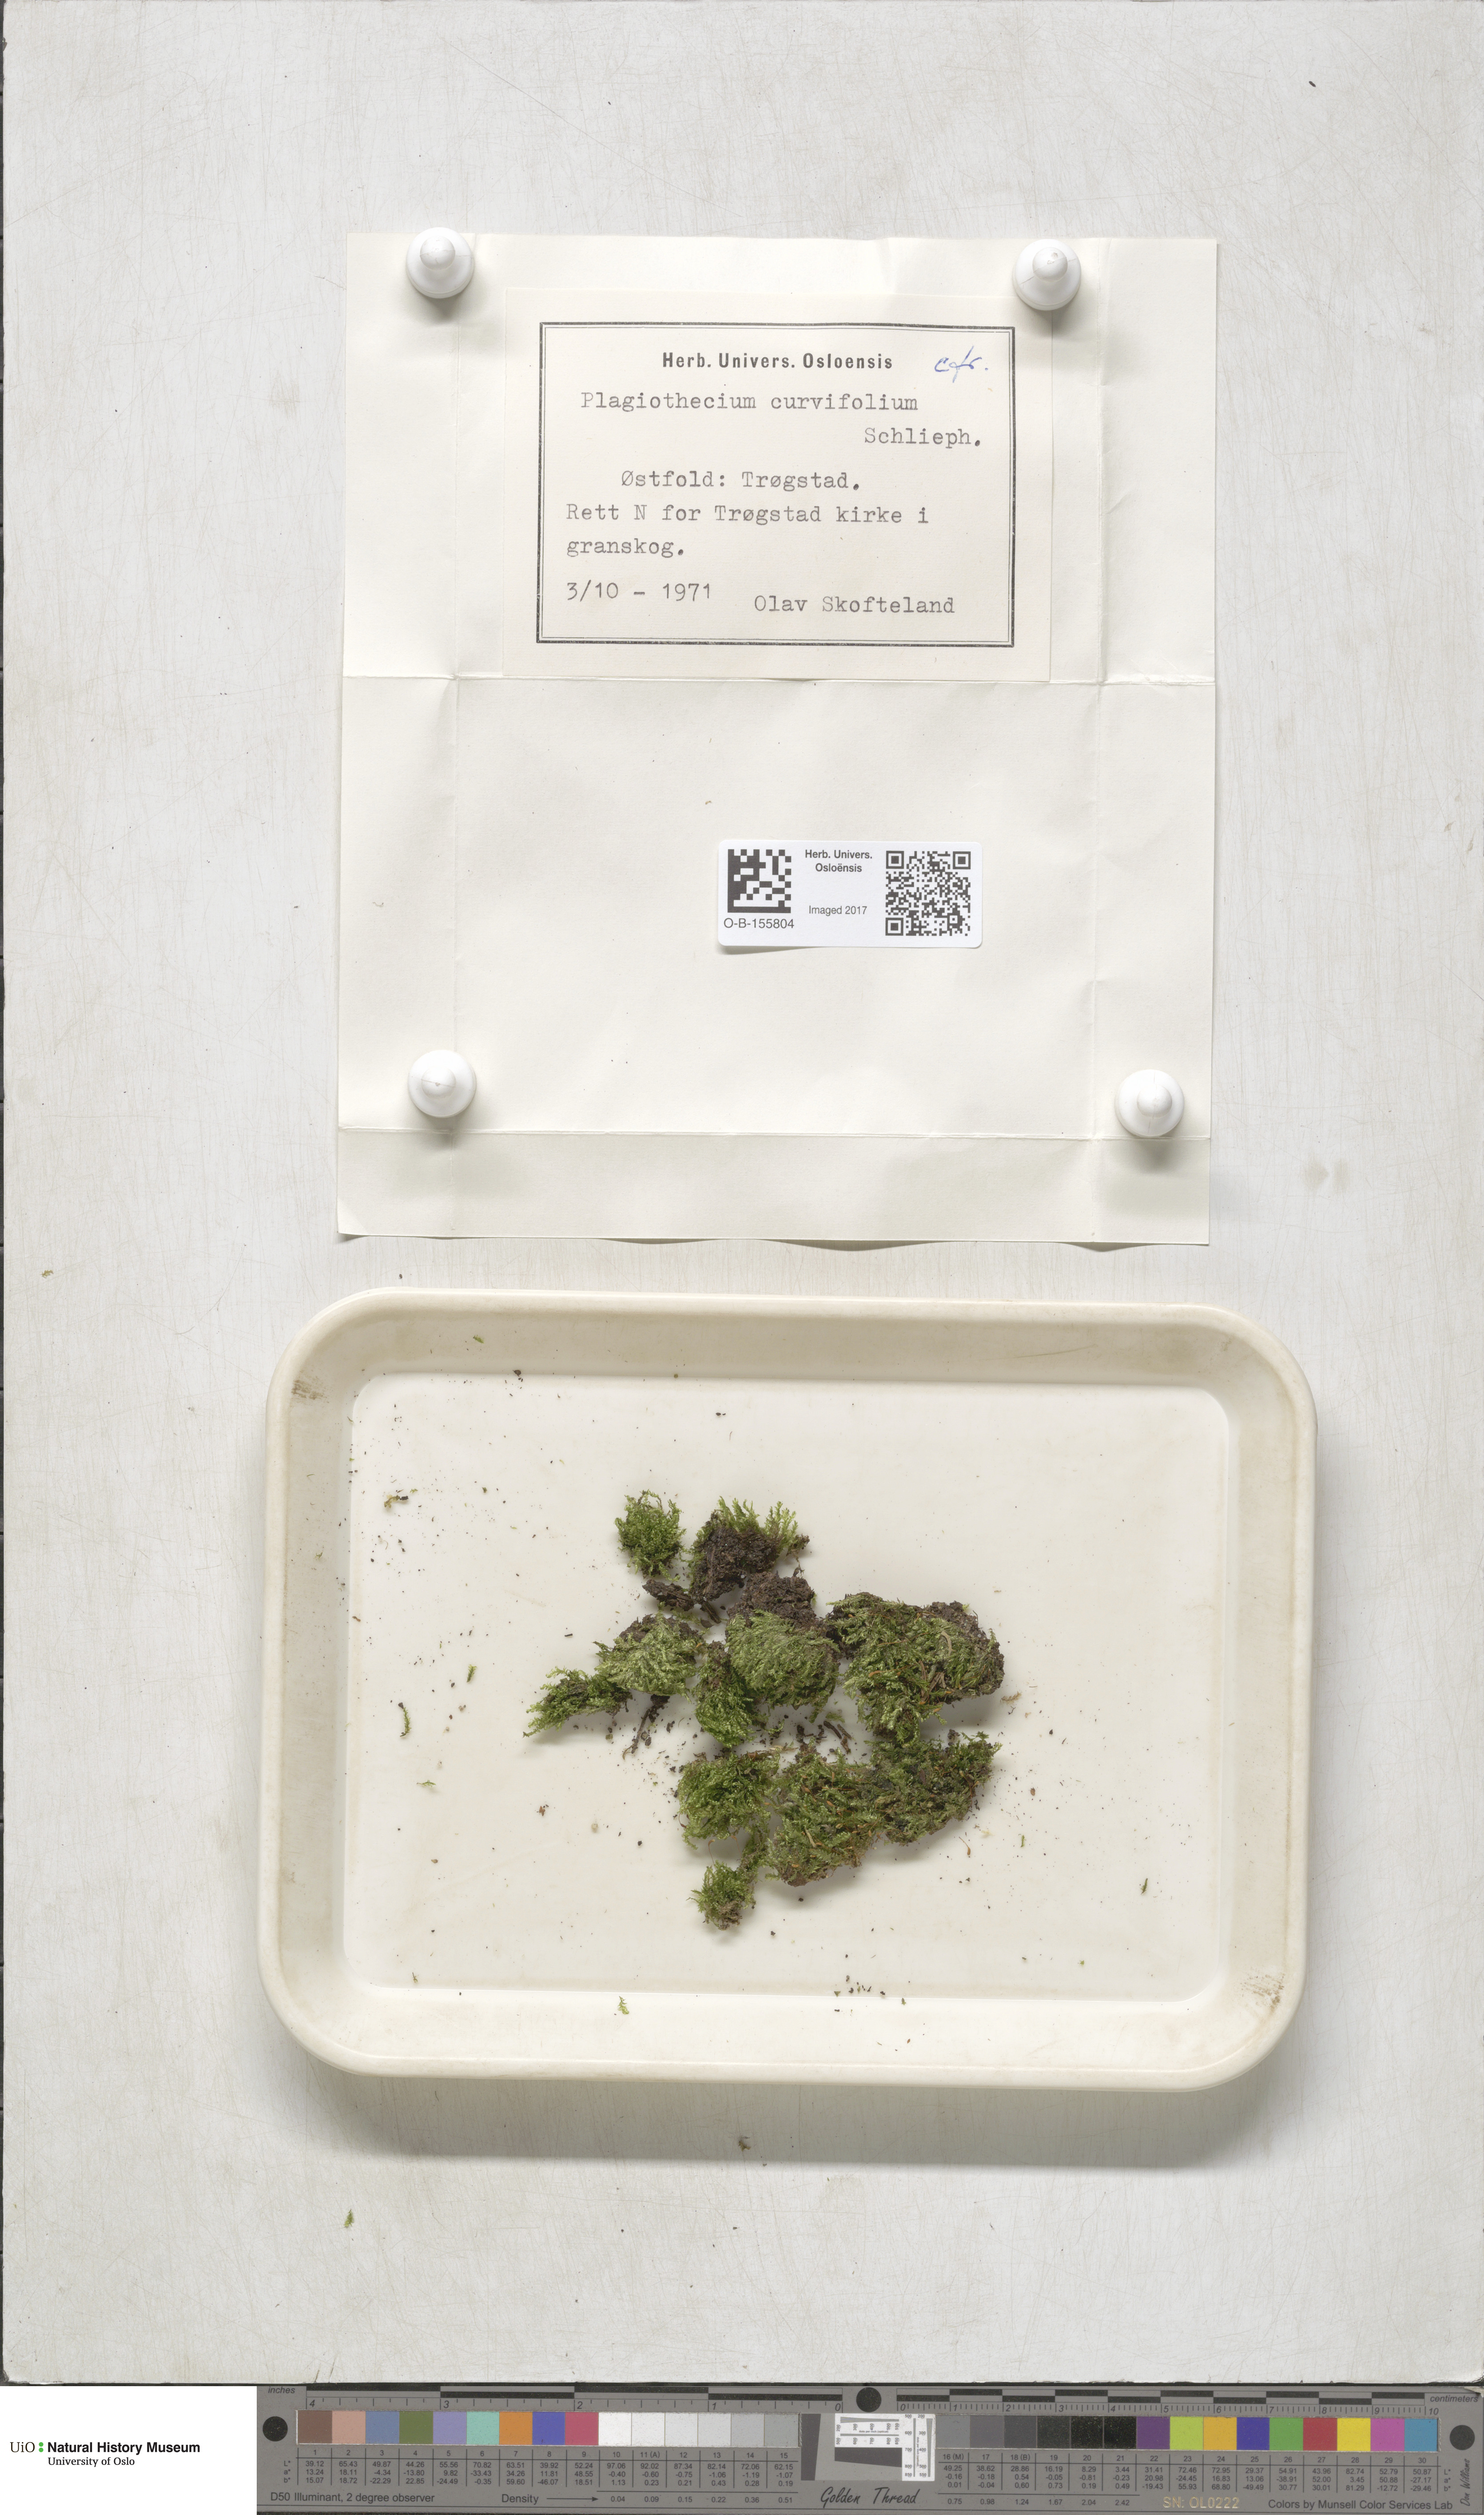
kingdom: Plantae
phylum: Bryophyta
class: Bryopsida
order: Hypnales
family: Plagiotheciaceae
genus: Plagiothecium
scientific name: Plagiothecium curvifolium
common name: Curved silk-moss
